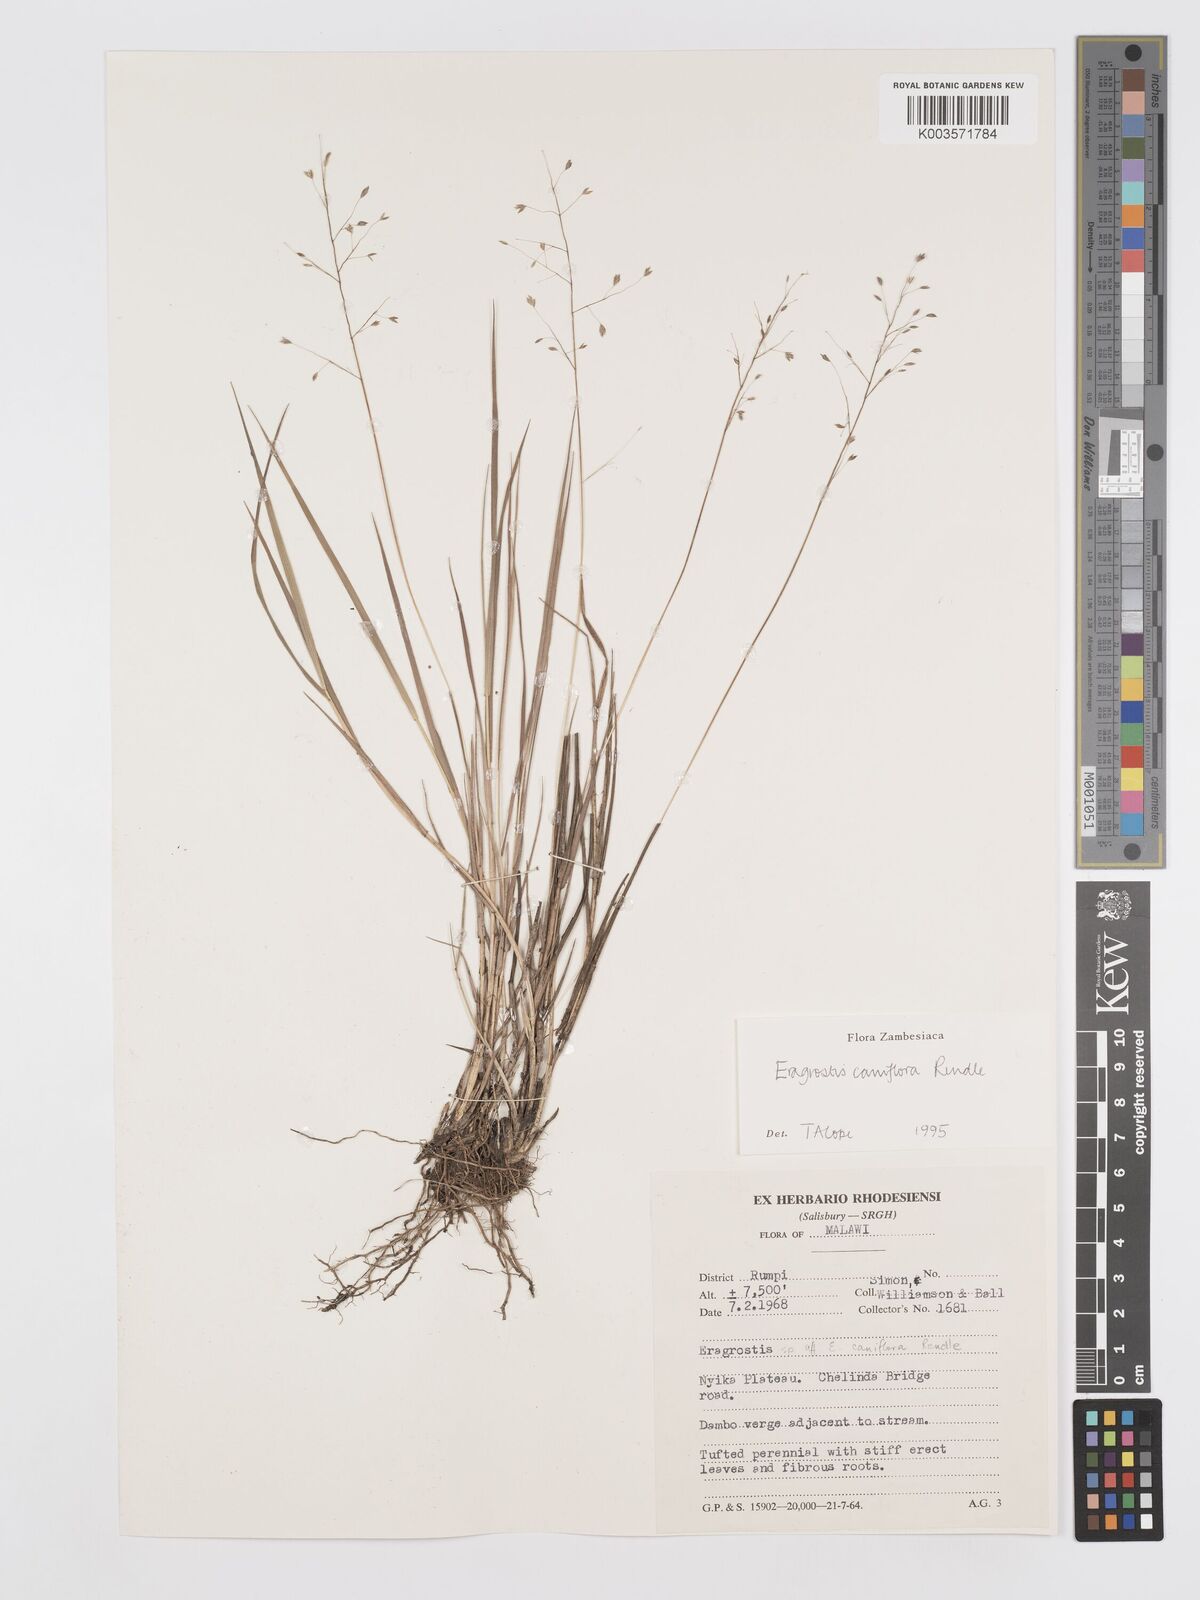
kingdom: Plantae
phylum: Tracheophyta
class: Liliopsida
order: Poales
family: Poaceae
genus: Eragrostis
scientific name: Eragrostis caniflora
